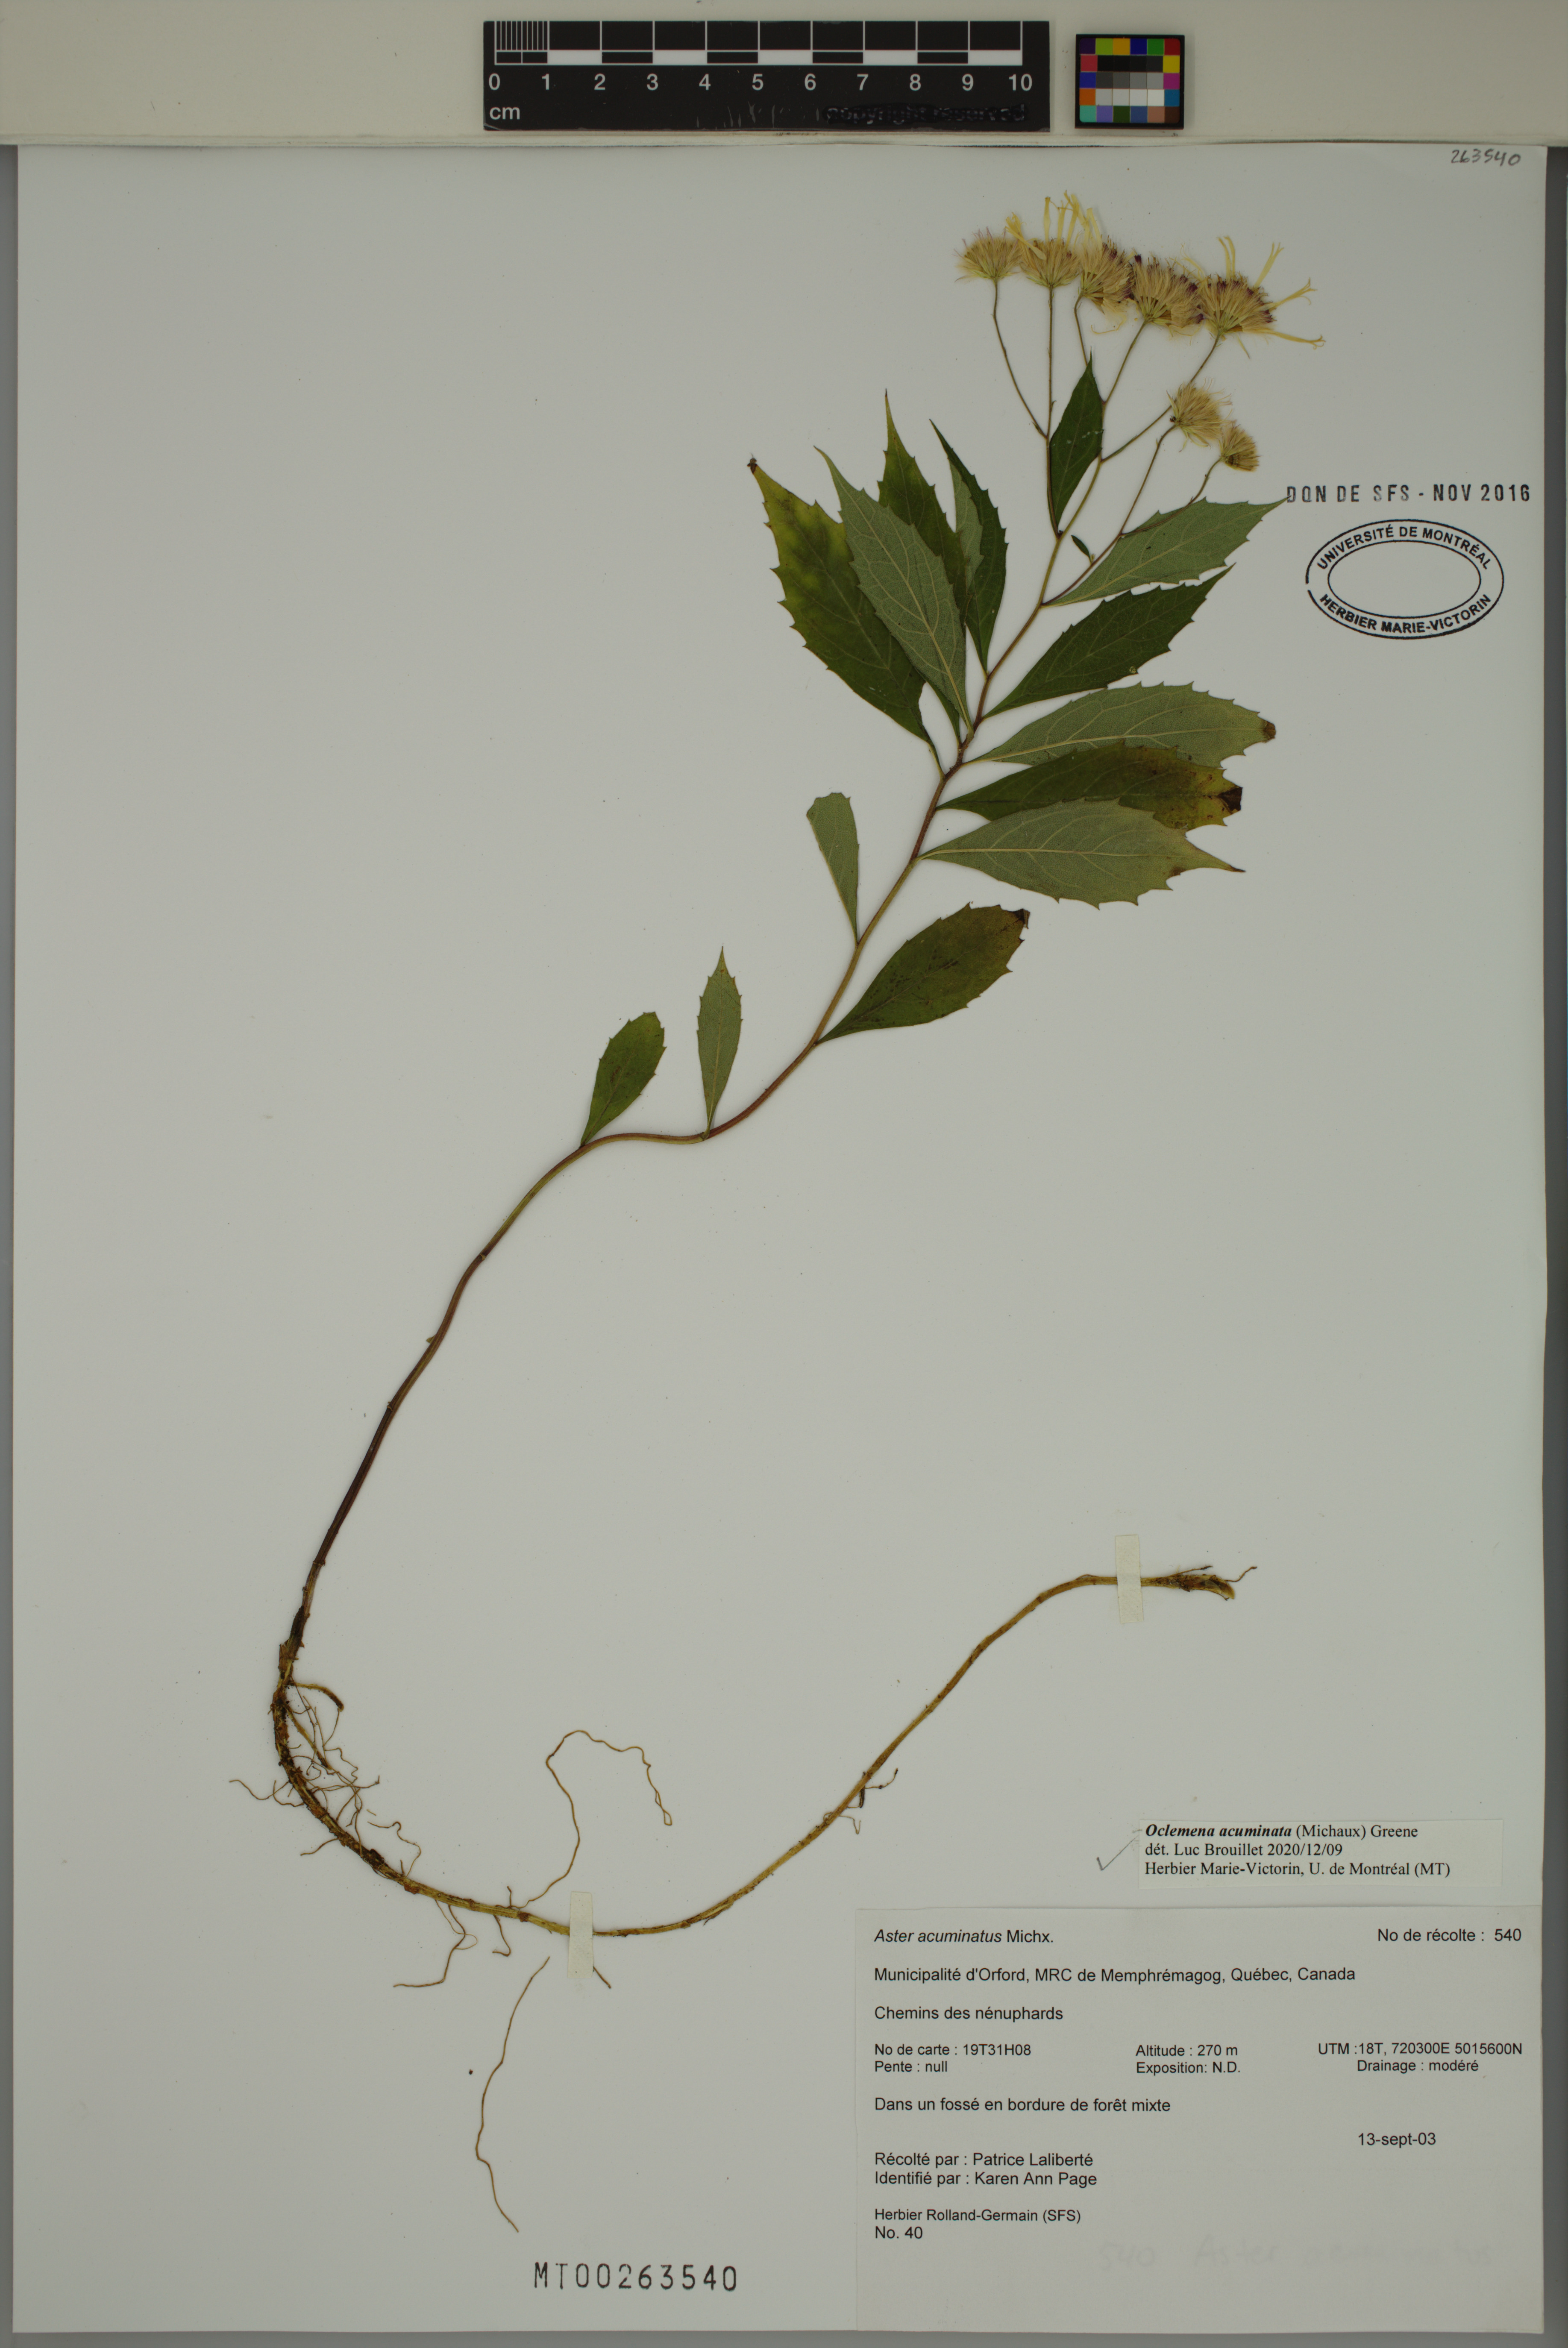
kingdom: Plantae
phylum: Tracheophyta
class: Magnoliopsida
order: Asterales
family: Asteraceae
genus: Oclemena
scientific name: Oclemena acuminata
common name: Mountain aster
